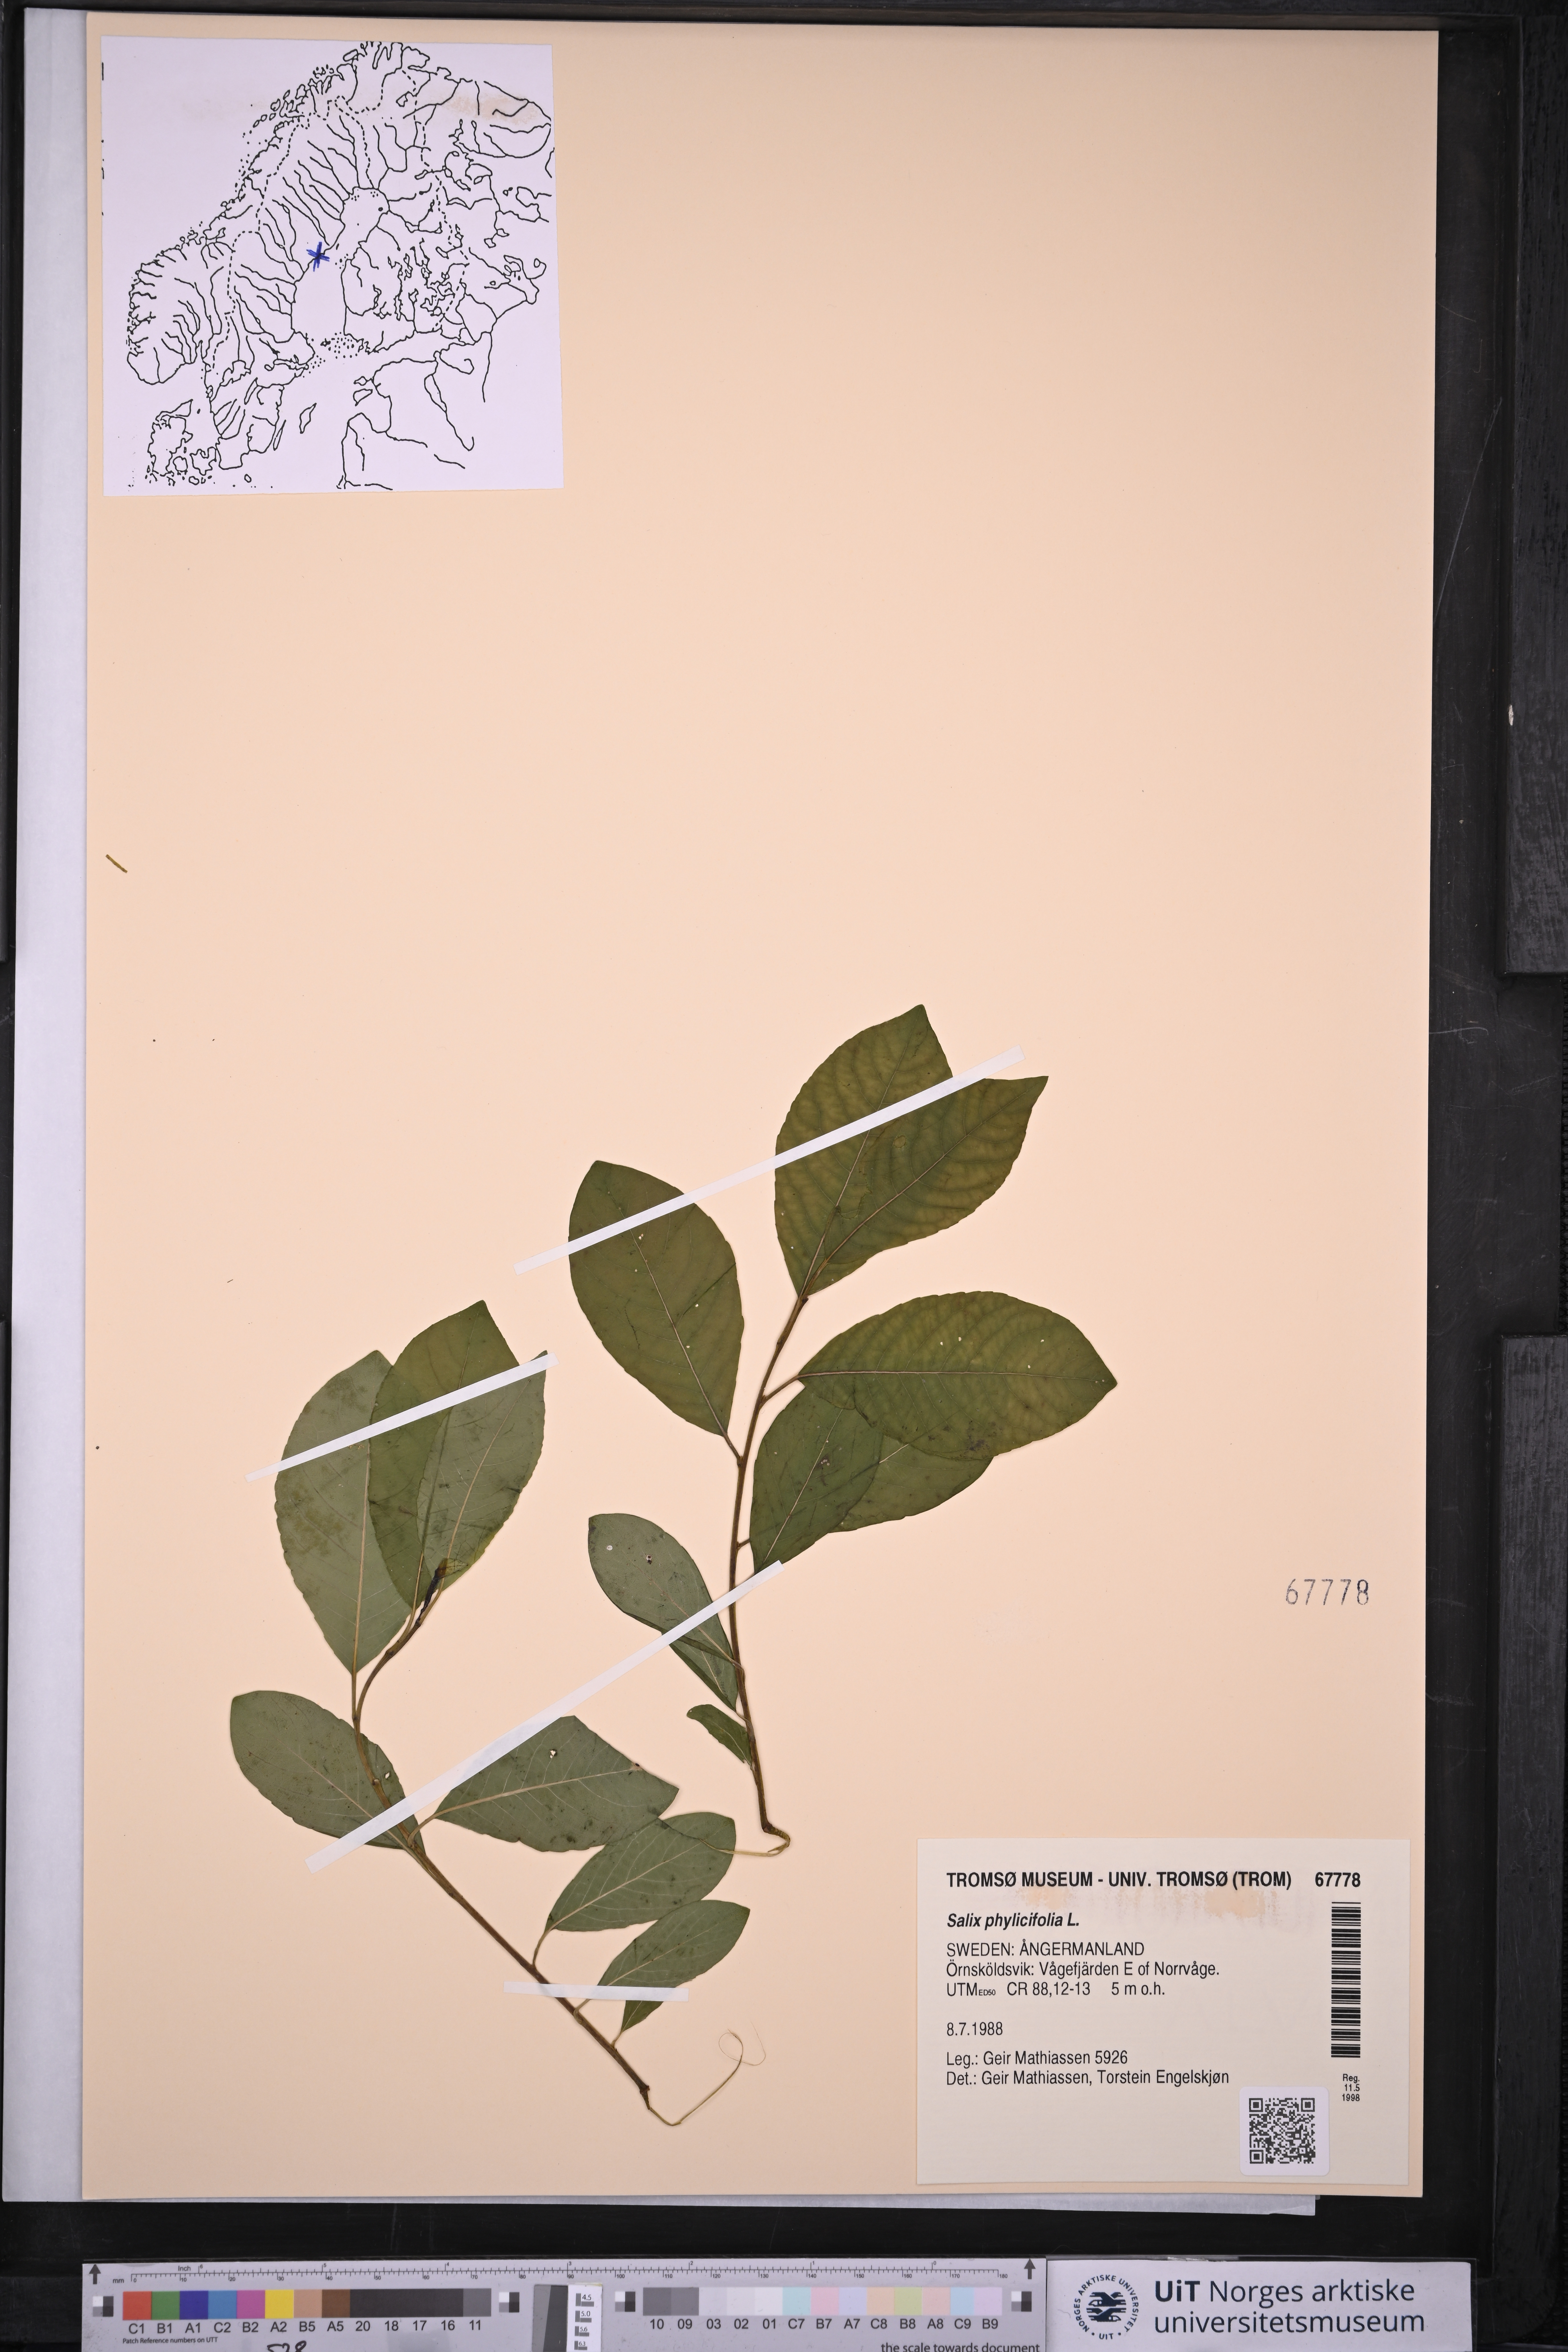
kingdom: Plantae
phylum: Tracheophyta
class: Magnoliopsida
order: Malpighiales
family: Salicaceae
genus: Salix
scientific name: Salix phylicifolia
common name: Tea-leaved willow
